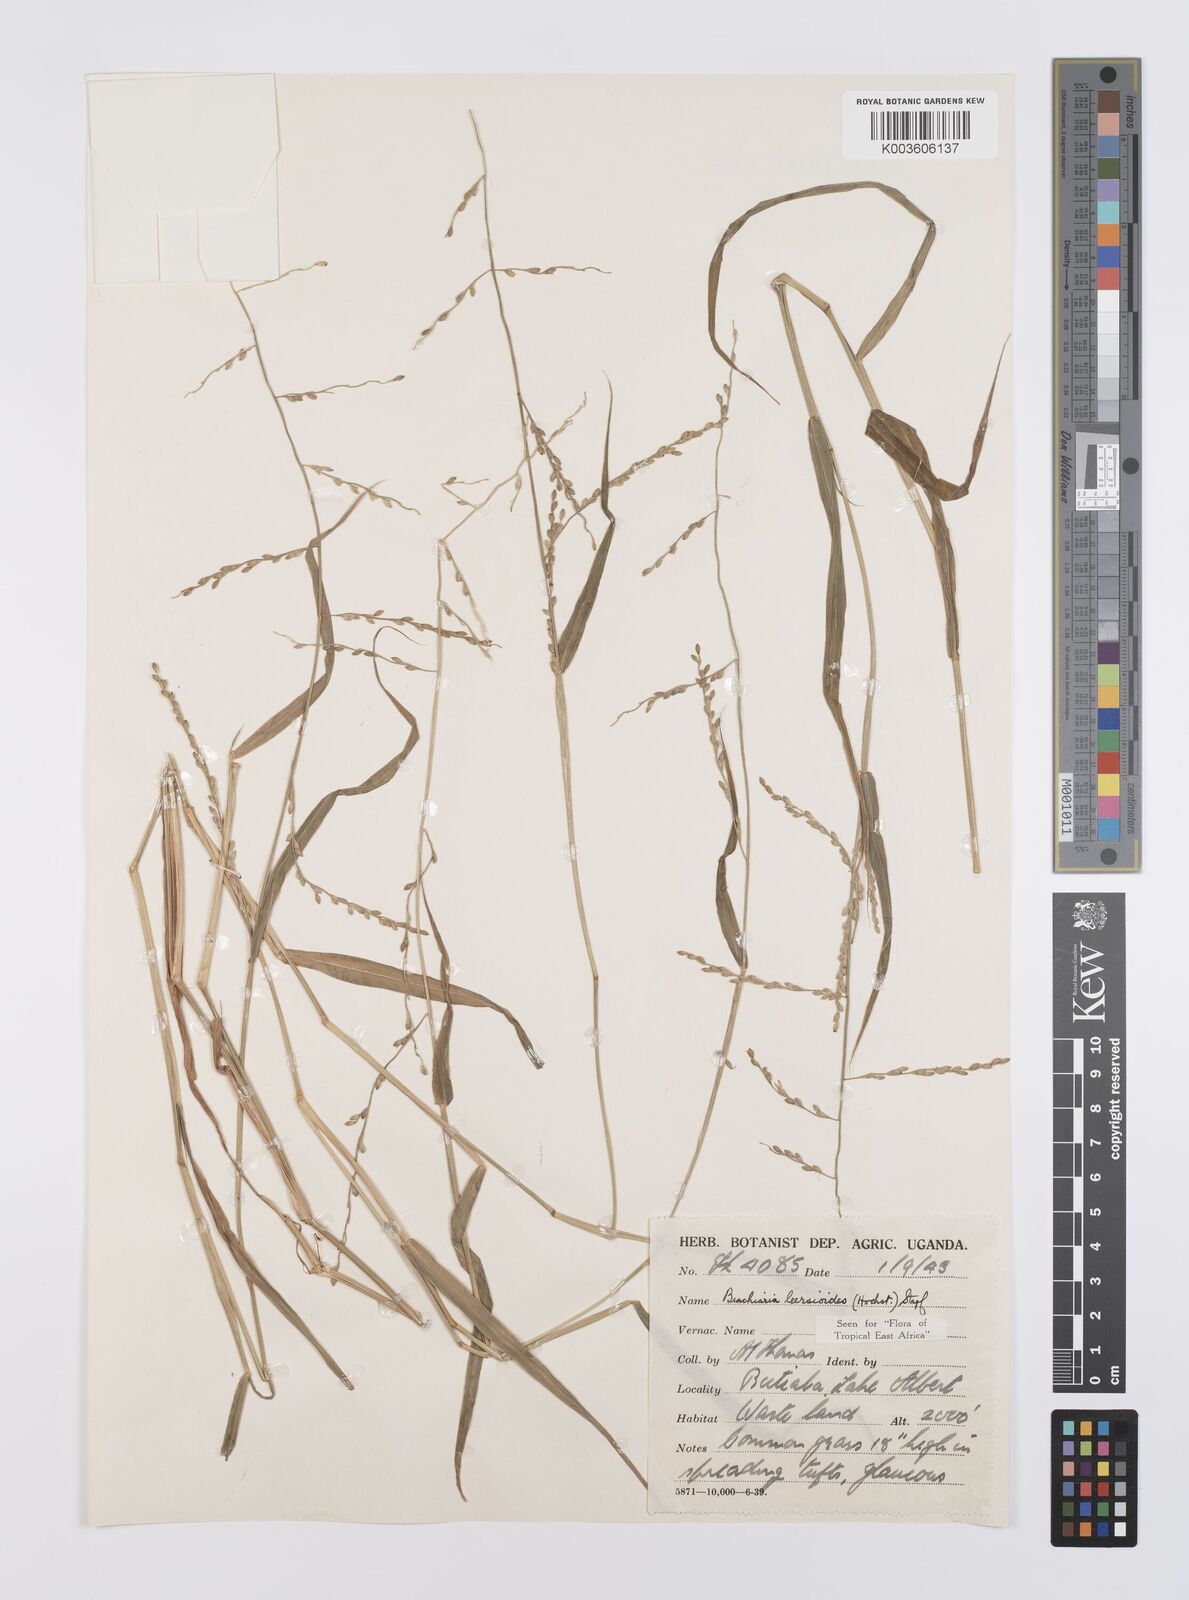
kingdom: Plantae
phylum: Tracheophyta
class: Liliopsida
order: Poales
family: Poaceae
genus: Urochloa
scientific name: Urochloa leersioides
